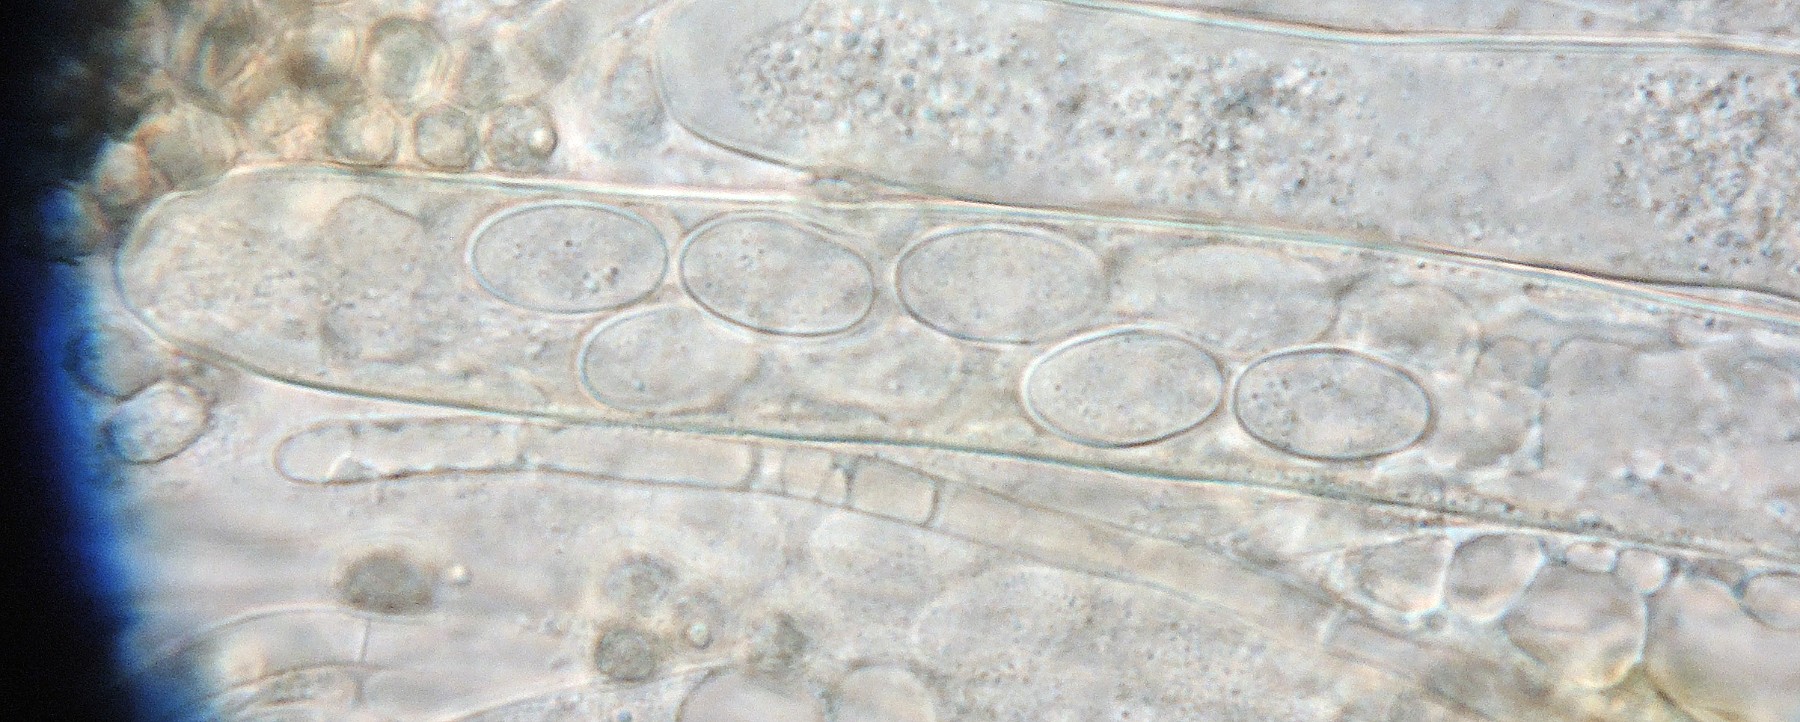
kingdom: Fungi
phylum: Ascomycota
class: Pezizomycetes
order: Pezizales
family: Pezizaceae
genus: Peziza
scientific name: Peziza
